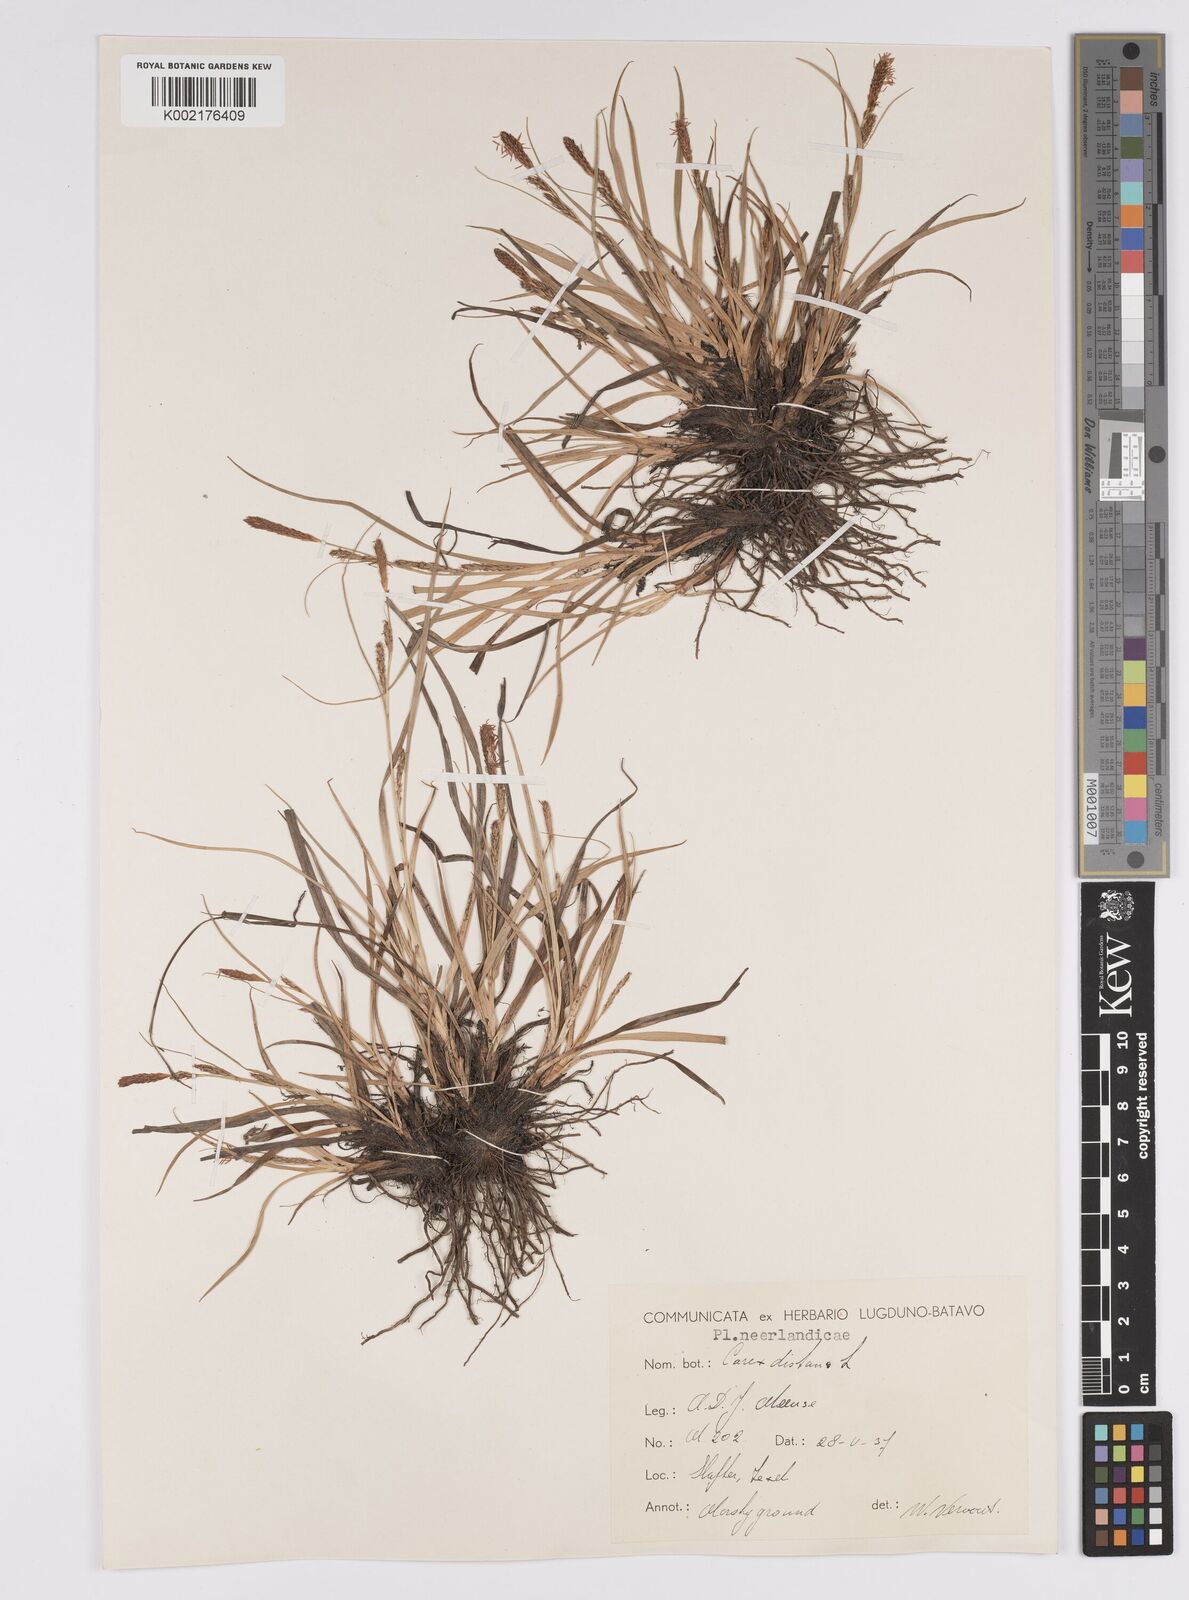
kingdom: Plantae
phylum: Tracheophyta
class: Liliopsida
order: Poales
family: Cyperaceae
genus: Carex
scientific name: Carex distans
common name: Distant sedge
